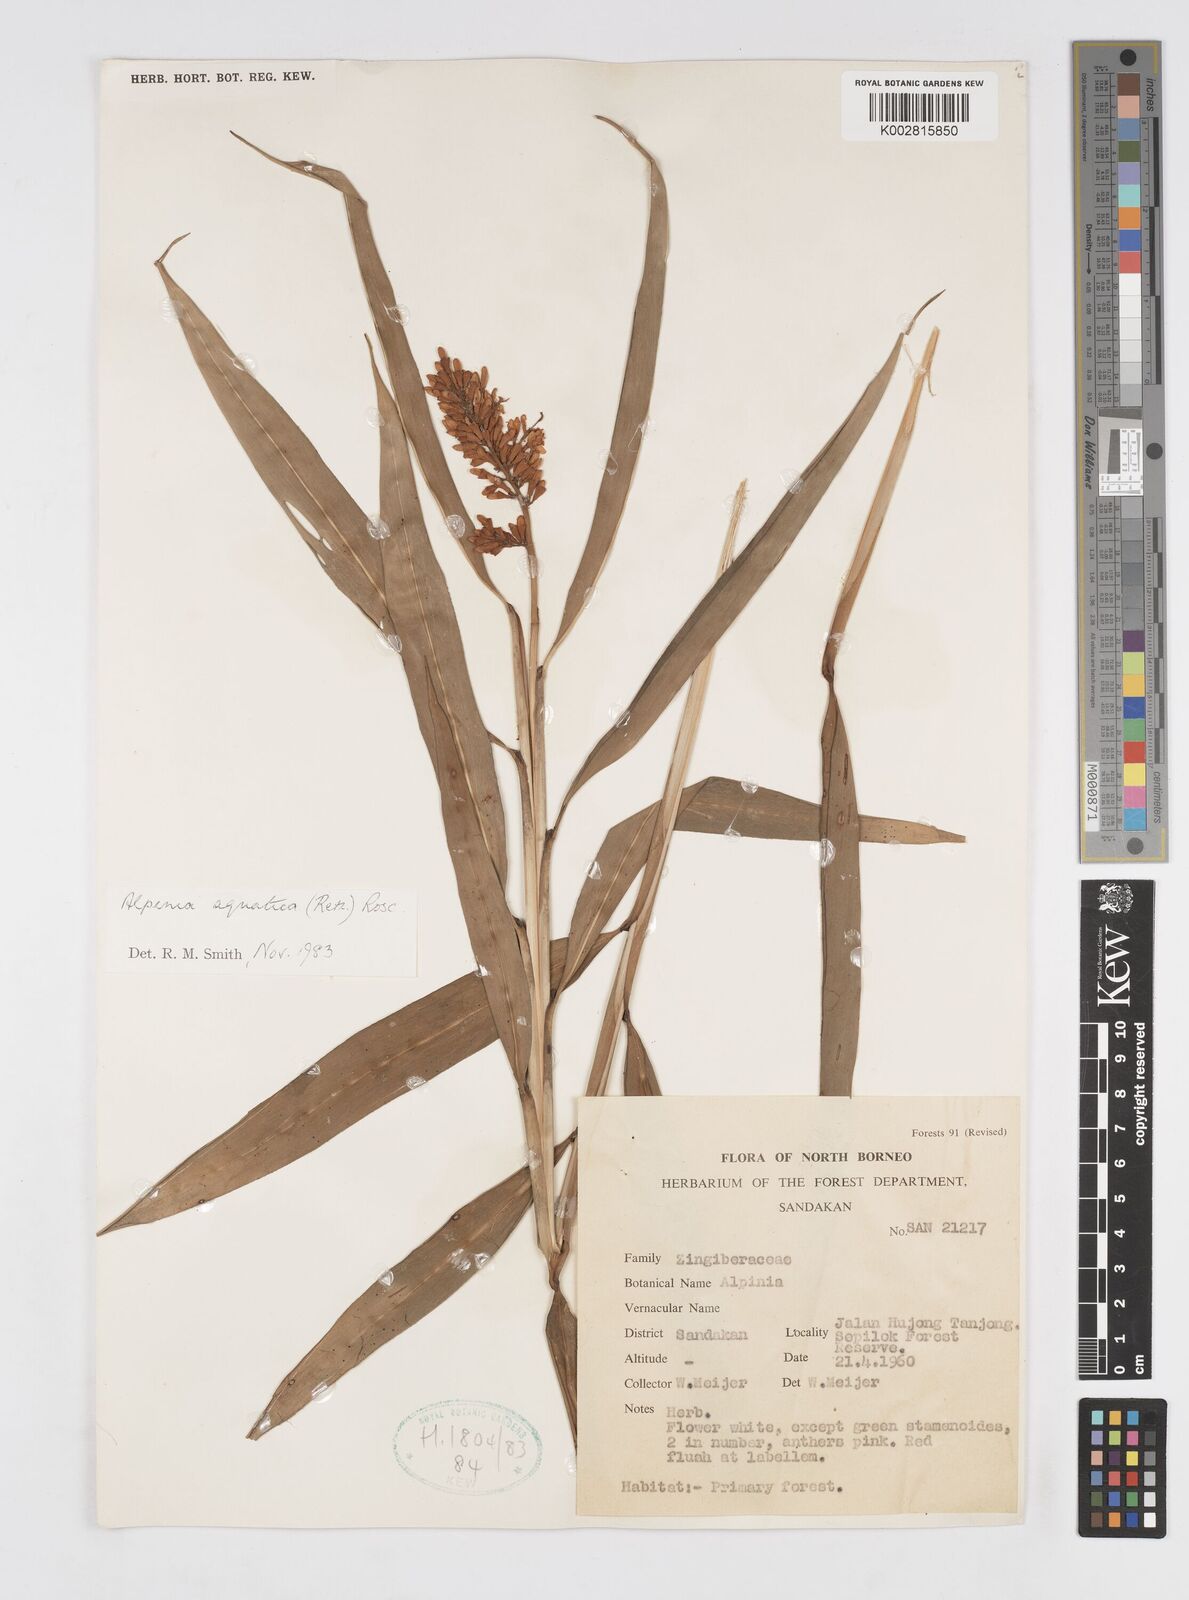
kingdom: Plantae
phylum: Tracheophyta
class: Liliopsida
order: Zingiberales
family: Zingiberaceae
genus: Alpinia
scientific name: Alpinia aquatica
